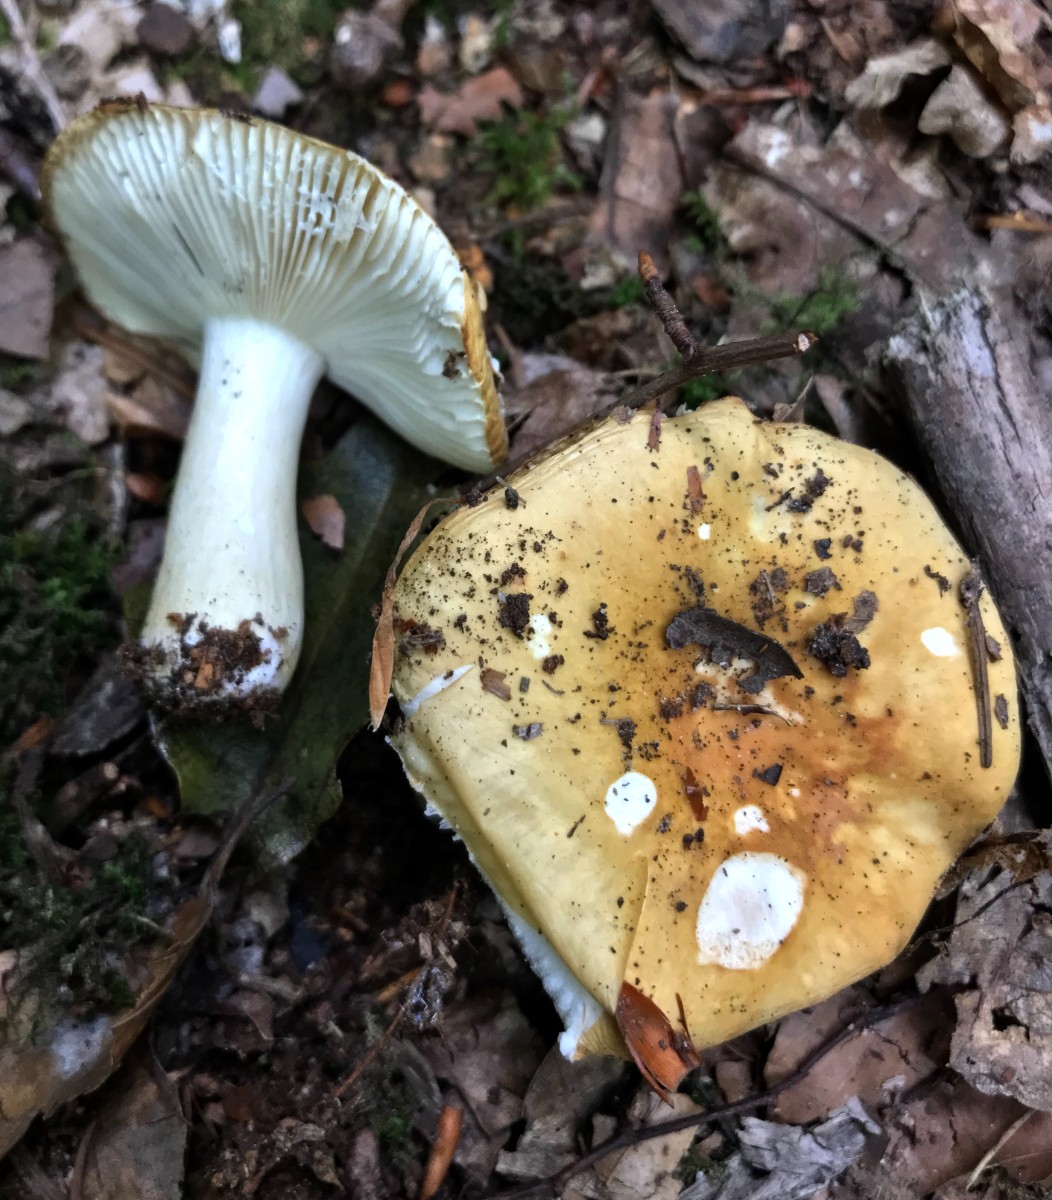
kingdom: Fungi
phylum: Basidiomycota
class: Agaricomycetes
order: Russulales
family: Russulaceae
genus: Russula
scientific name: Russula ochroleuca
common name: okkergul skørhat
